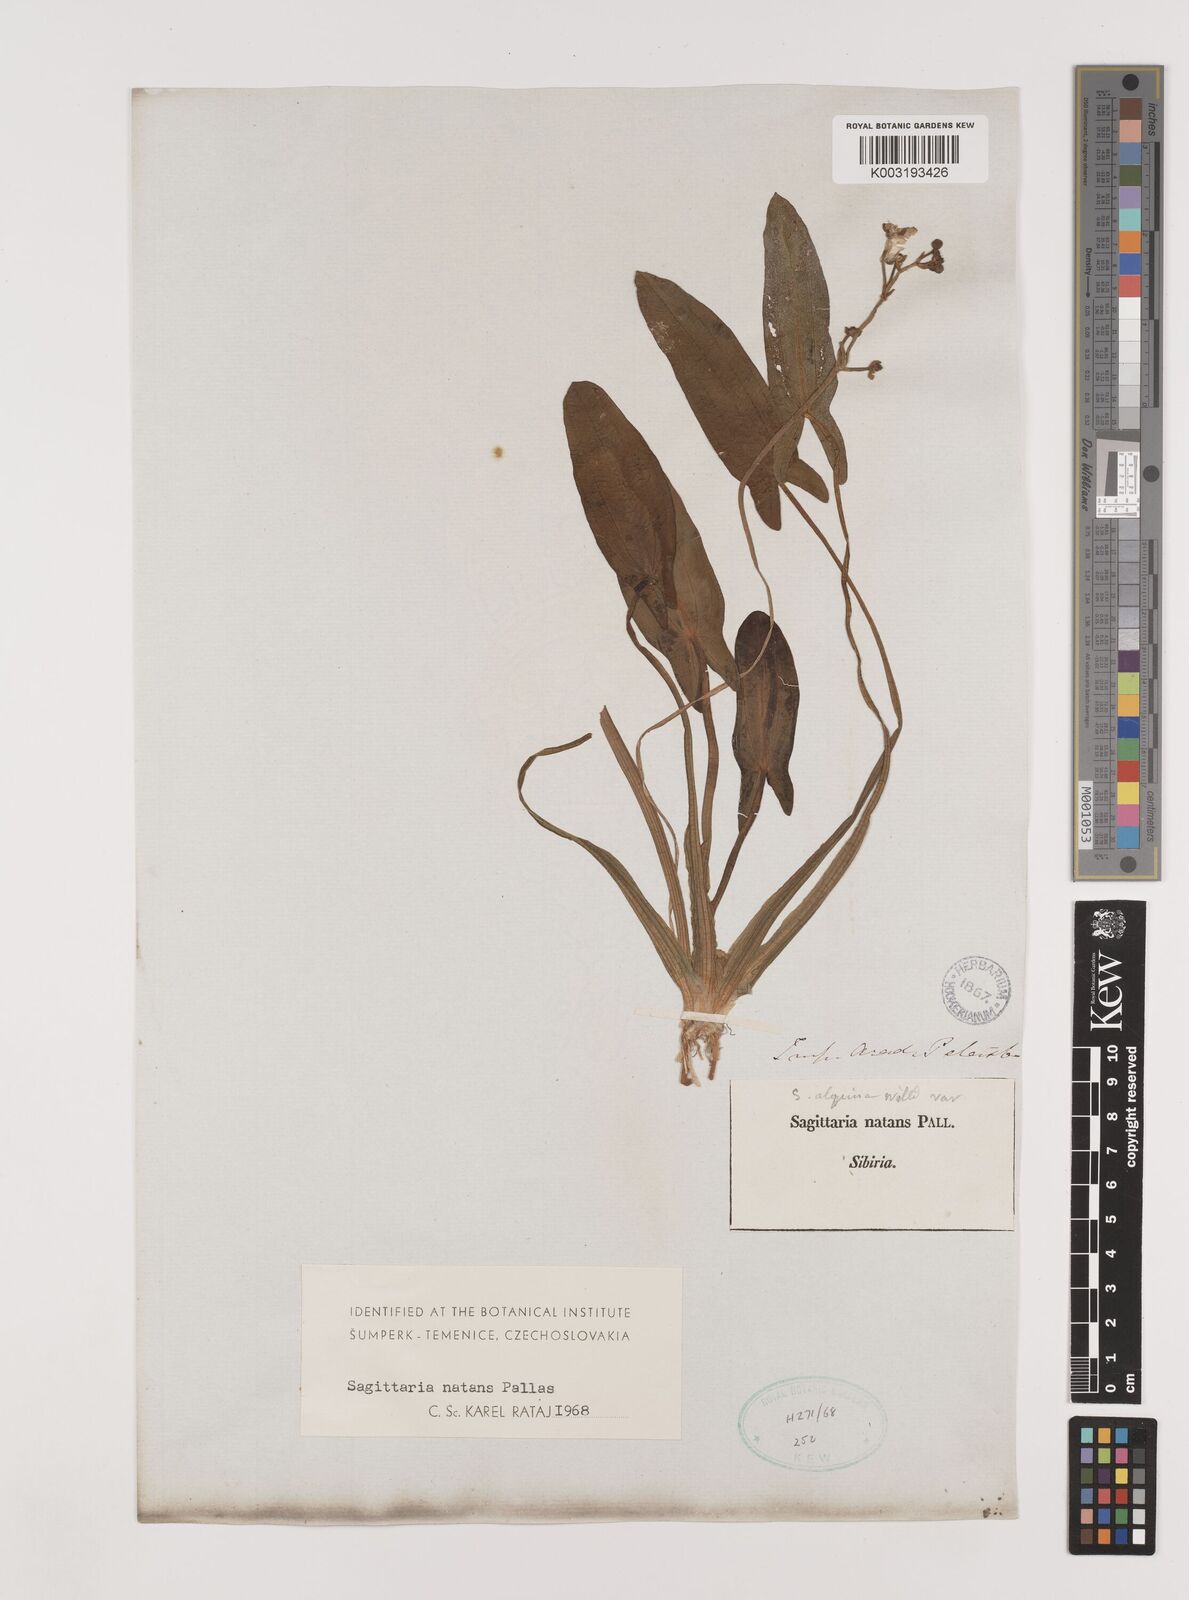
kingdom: Plantae
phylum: Tracheophyta
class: Liliopsida
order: Alismatales
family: Alismataceae
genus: Sagittaria
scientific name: Sagittaria natans
